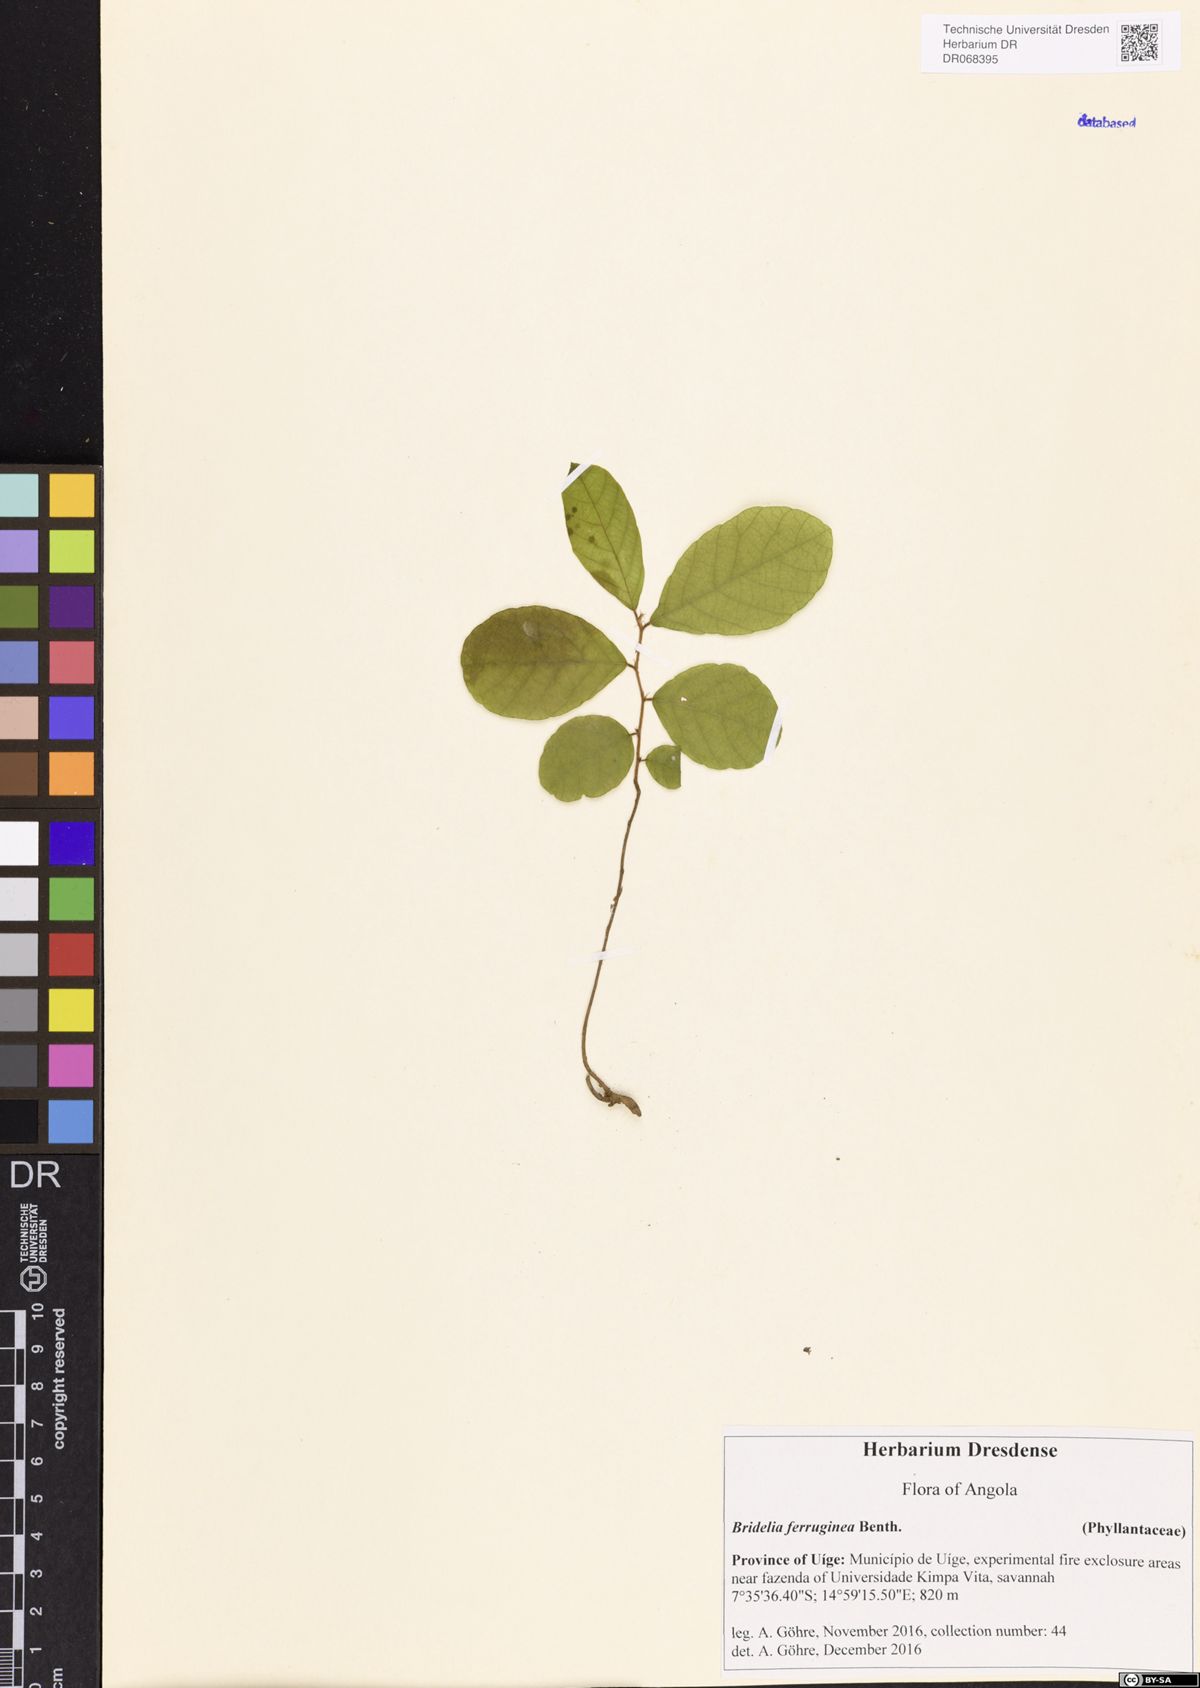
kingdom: Plantae
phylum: Tracheophyta
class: Magnoliopsida
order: Malpighiales
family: Phyllanthaceae
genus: Bridelia
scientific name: Bridelia ferruginea
